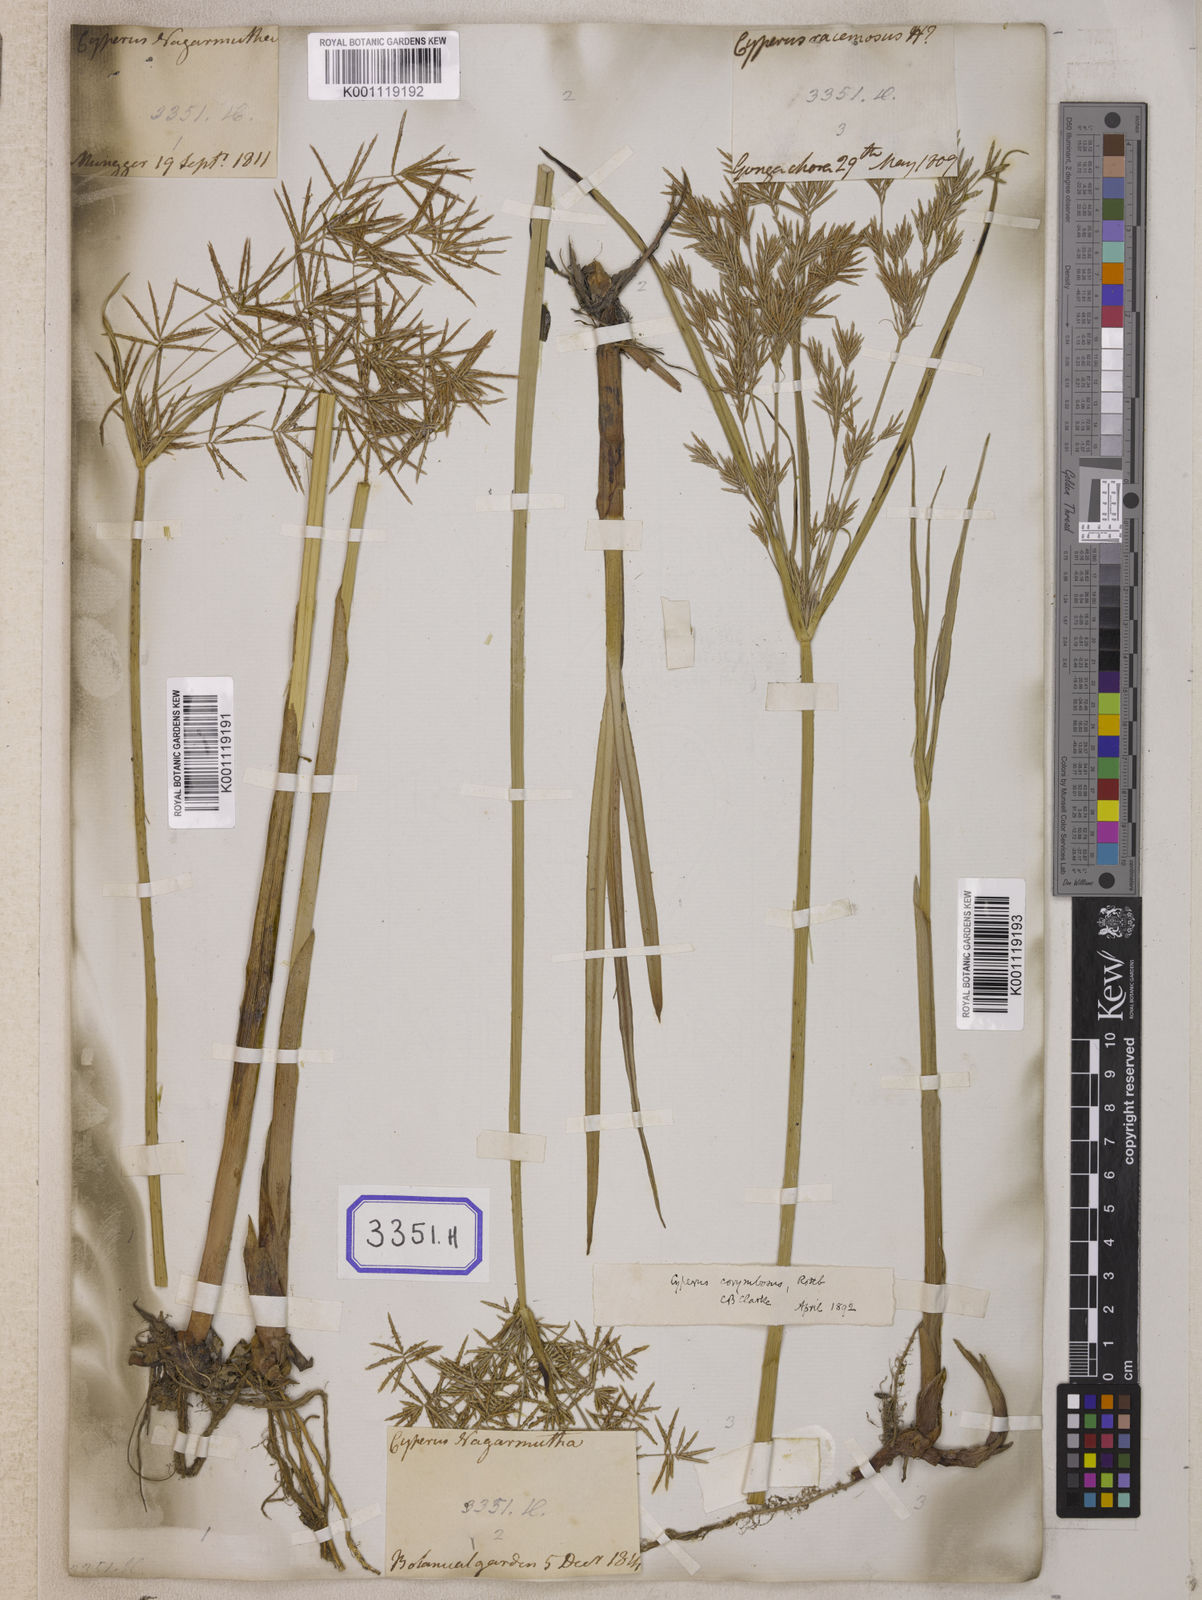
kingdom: Plantae
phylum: Tracheophyta
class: Liliopsida
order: Poales
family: Cyperaceae
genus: Cyperus
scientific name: Cyperus
